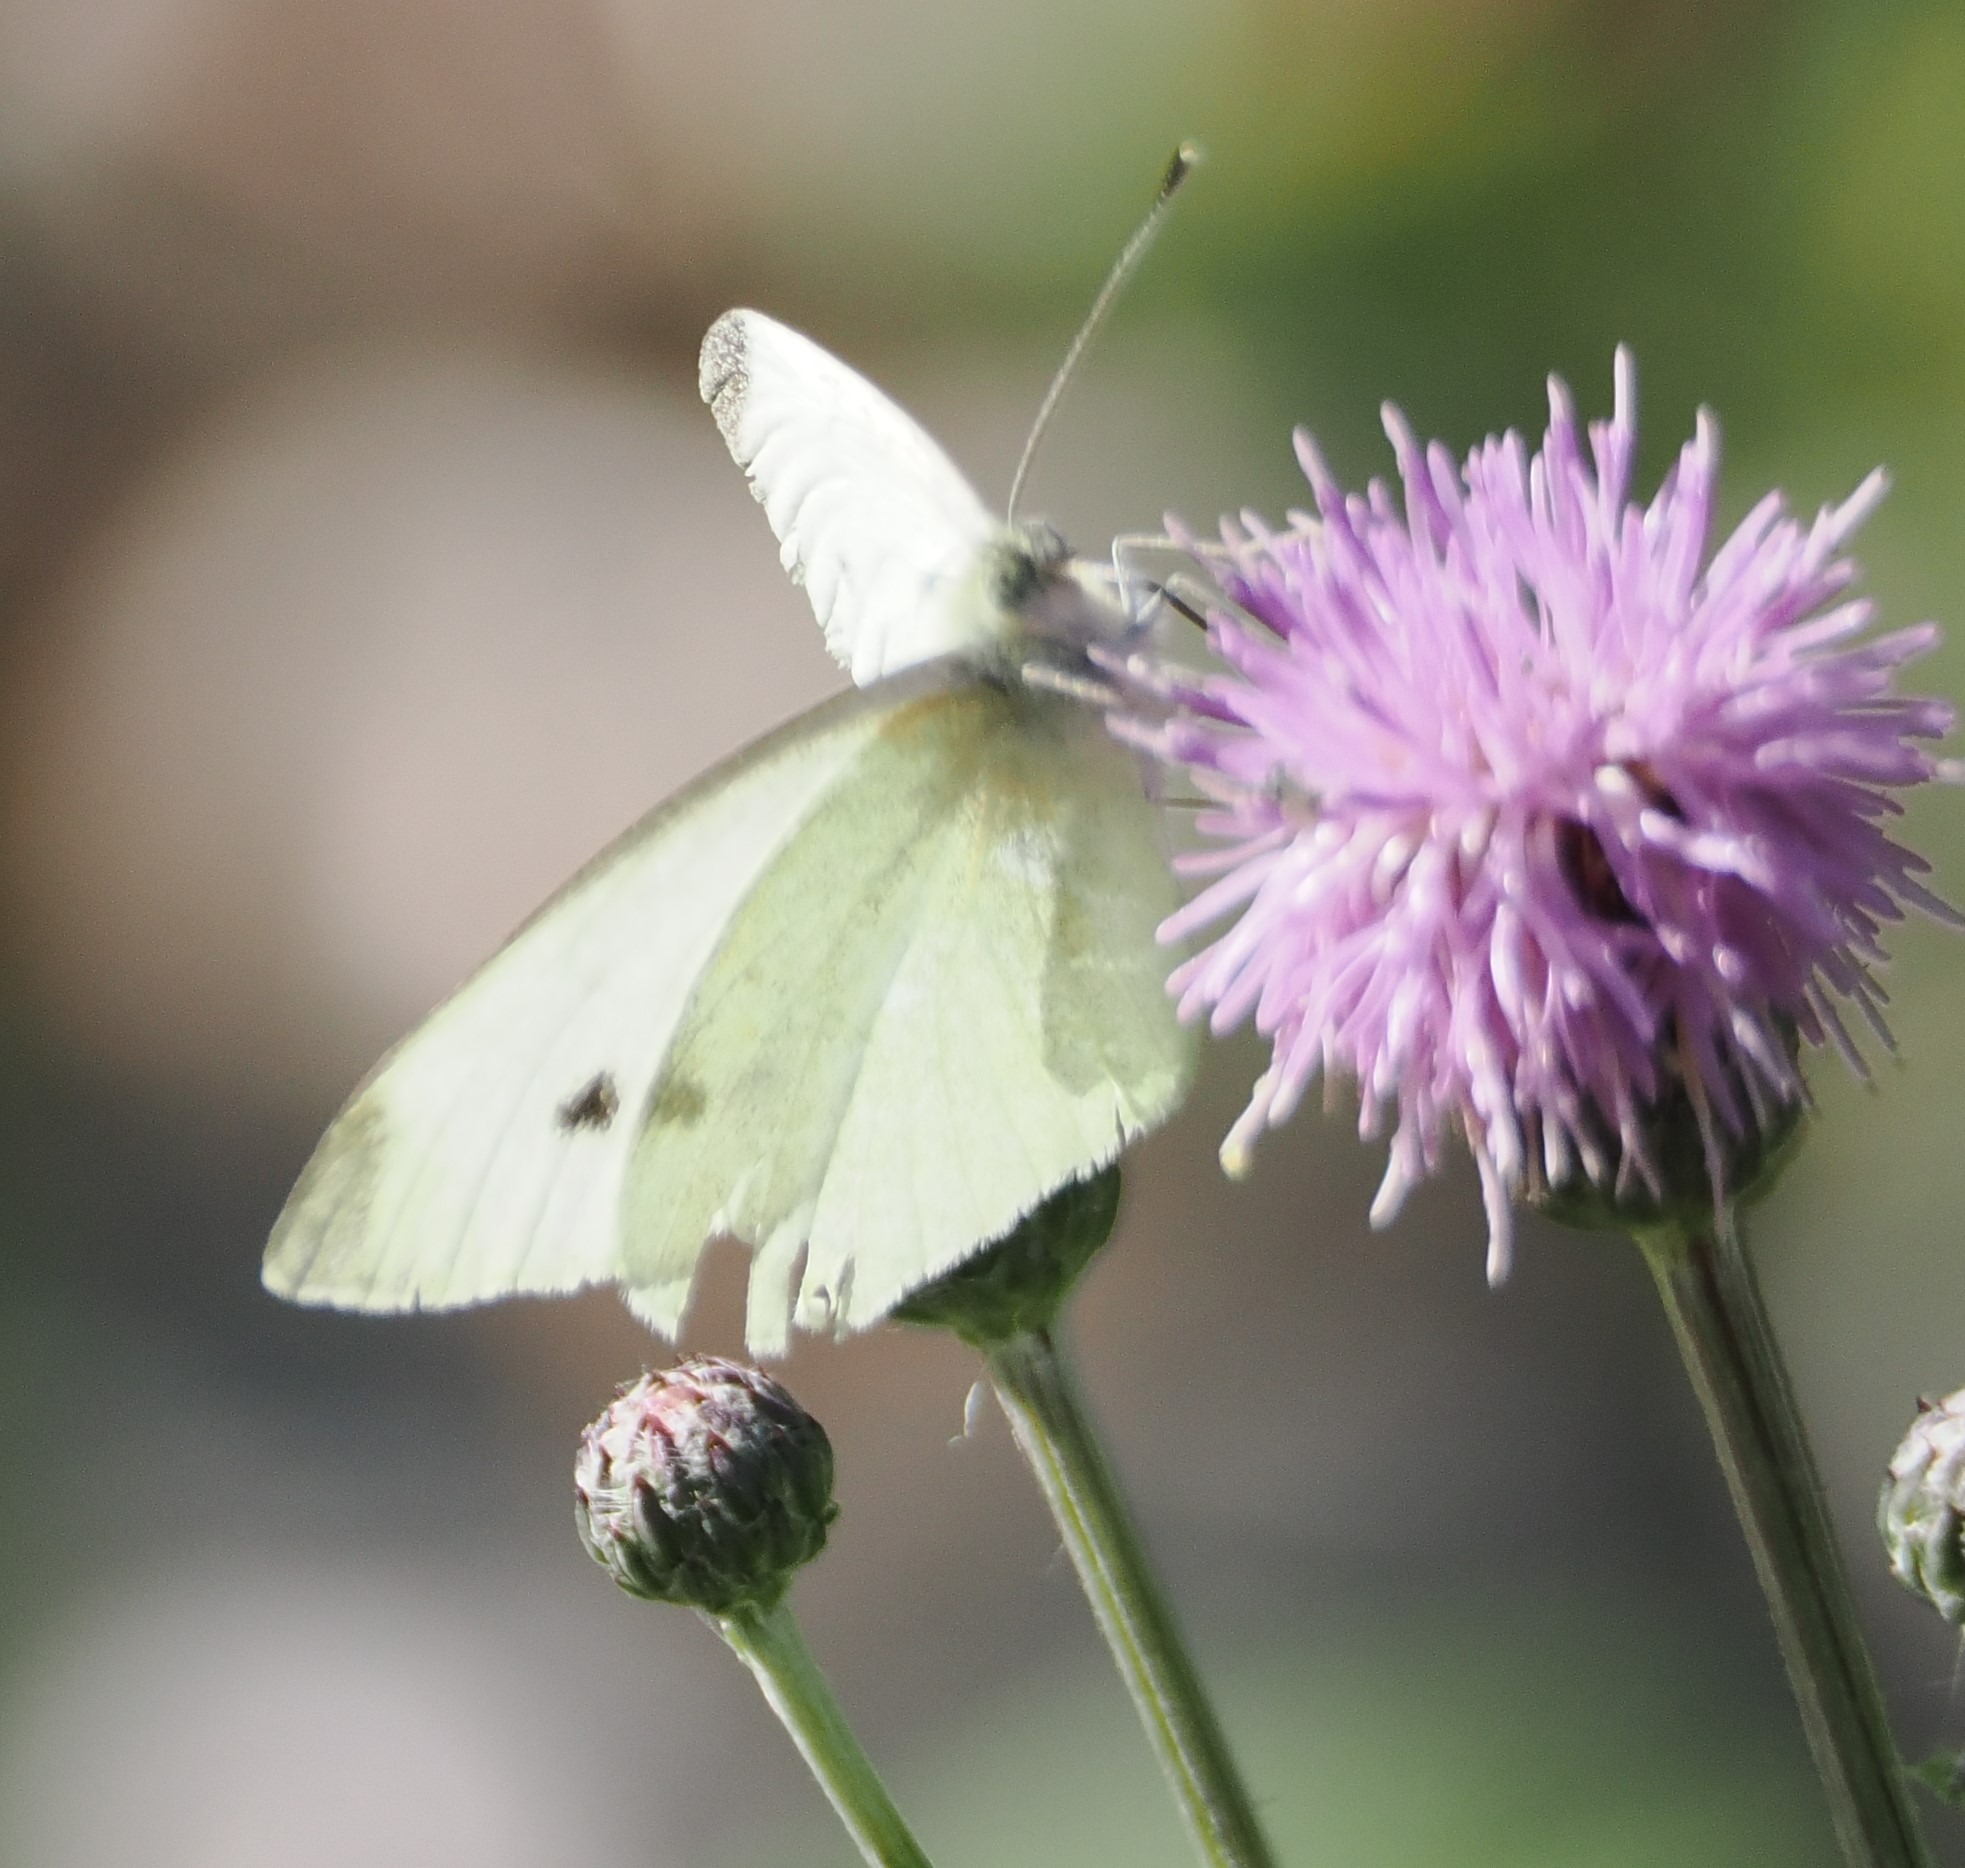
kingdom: Animalia
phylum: Arthropoda
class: Insecta
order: Lepidoptera
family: Pieridae
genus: Pieris
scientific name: Pieris rapae
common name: Lille kålsommerfugl
